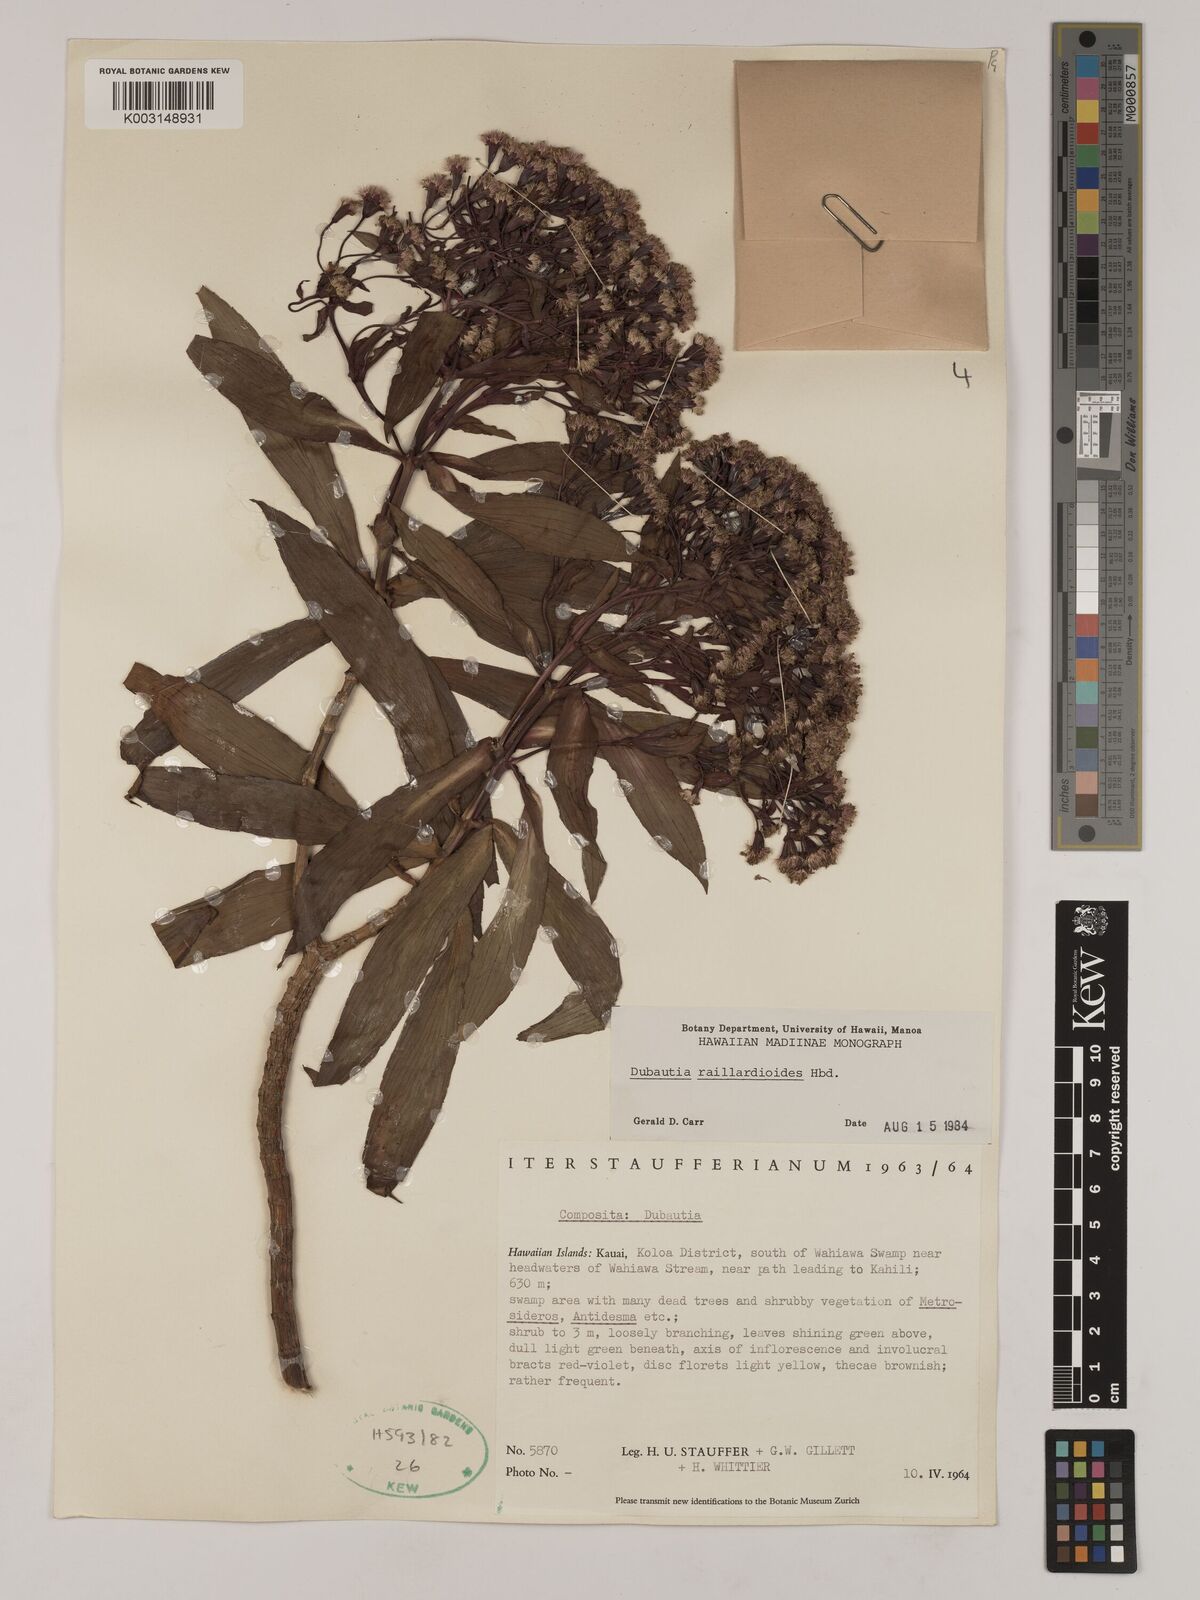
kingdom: Plantae
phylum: Tracheophyta
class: Magnoliopsida
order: Asterales
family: Asteraceae
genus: Dubautia
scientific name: Dubautia raillardioides
